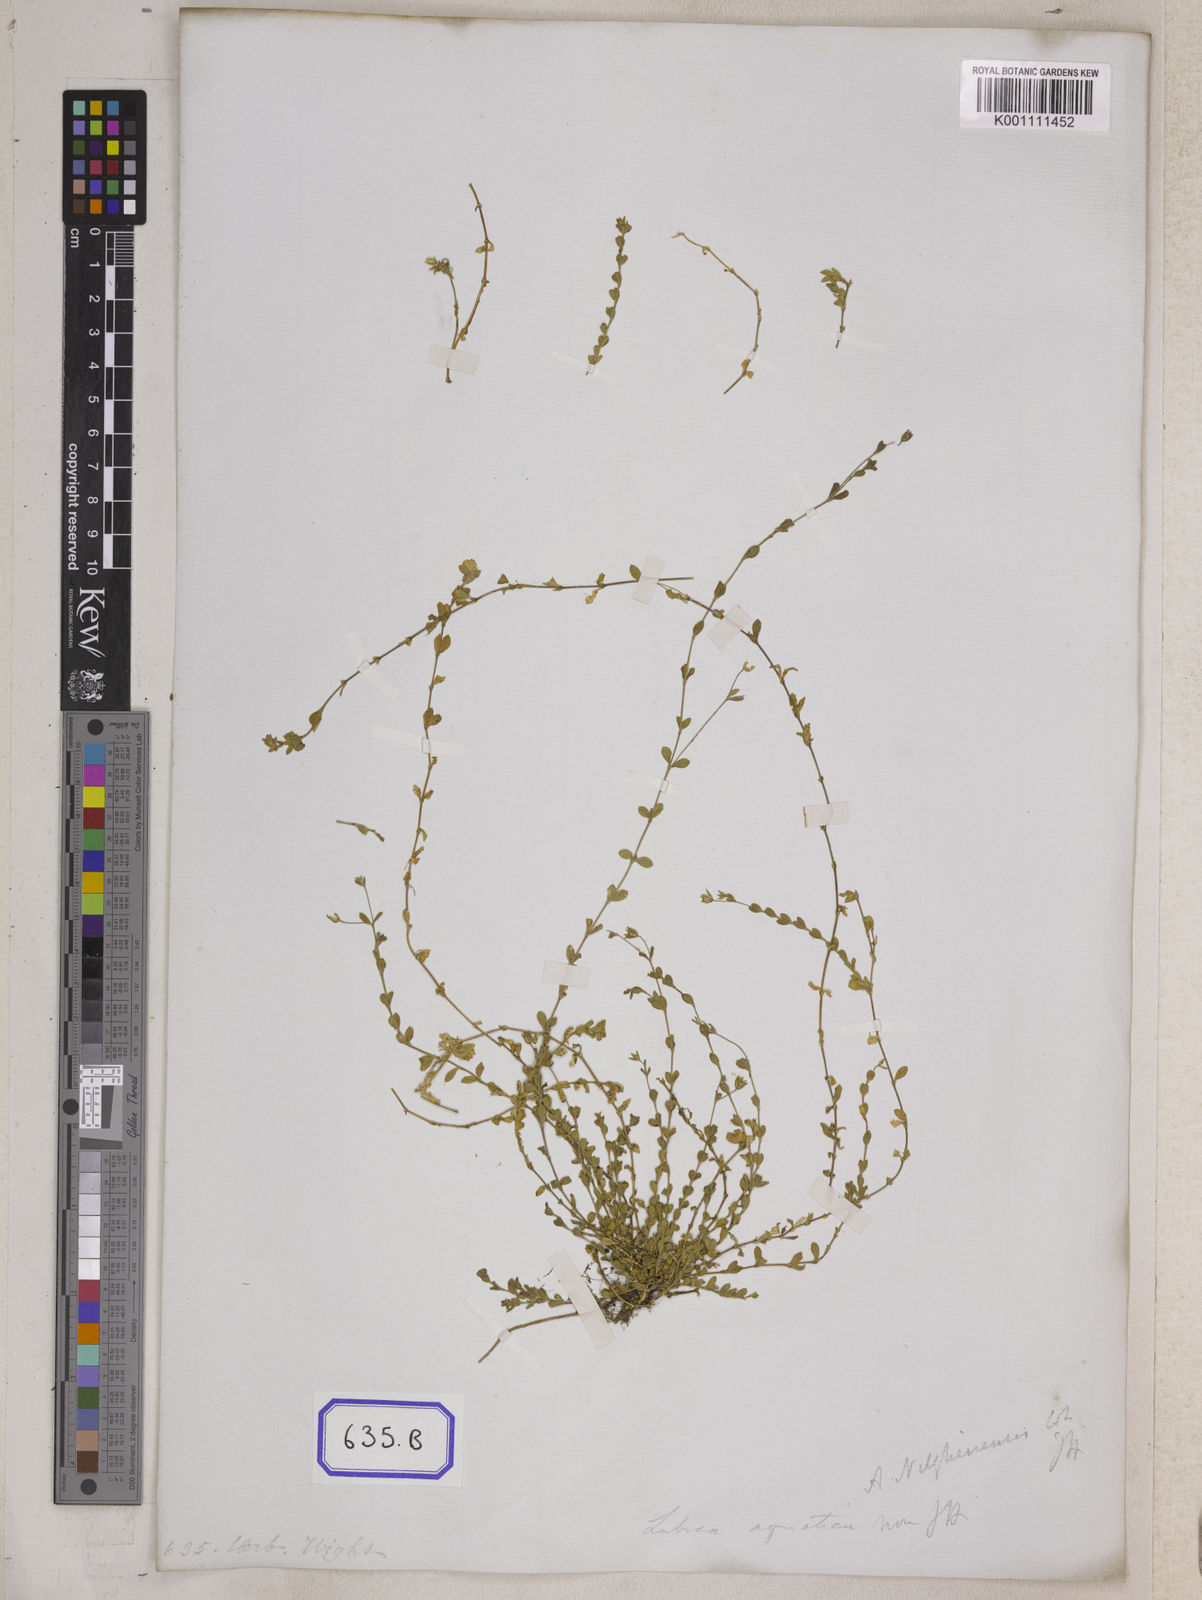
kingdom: Plantae
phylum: Tracheophyta
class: Magnoliopsida
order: Caryophyllales
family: Caryophyllaceae
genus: Stellaria
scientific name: Stellaria alsine
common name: Bog stitchwort
